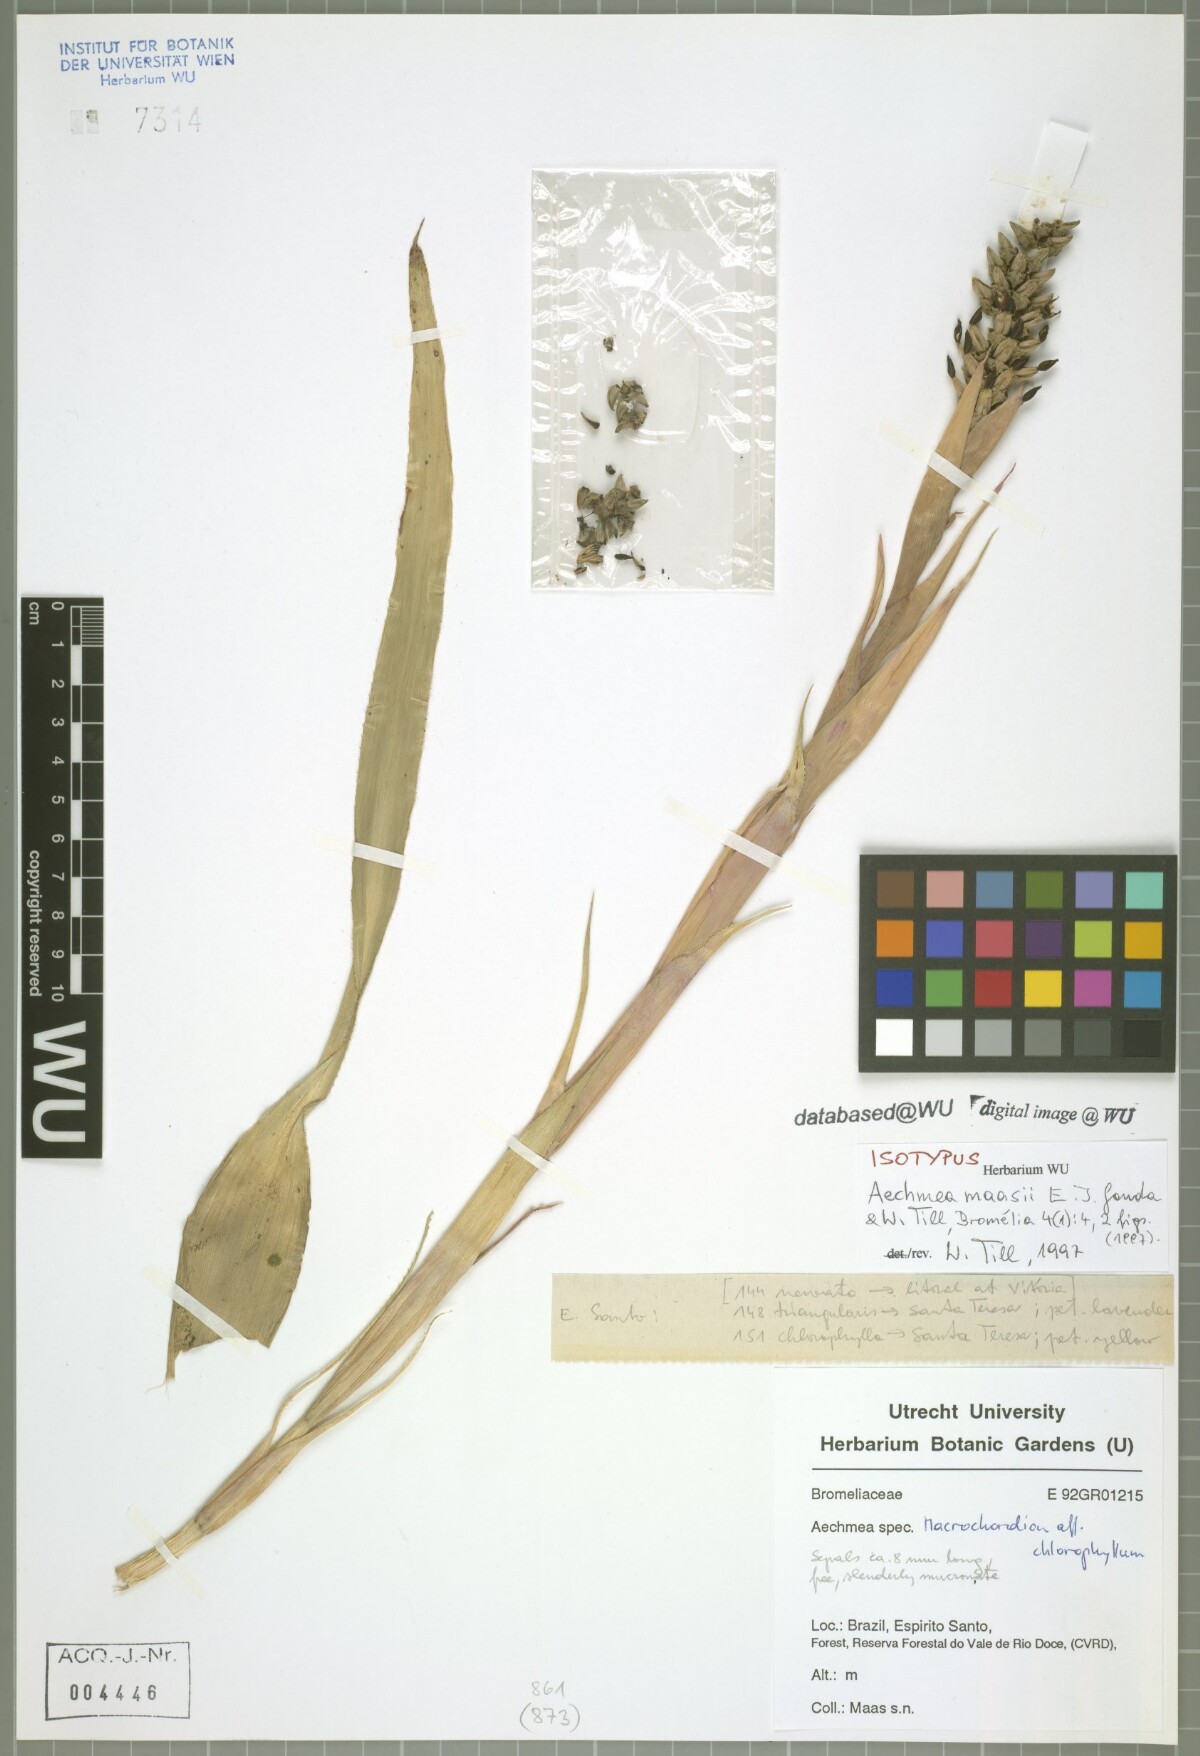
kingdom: Plantae
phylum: Tracheophyta
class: Liliopsida
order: Poales
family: Bromeliaceae
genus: Aechmea
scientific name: Aechmea maasii
